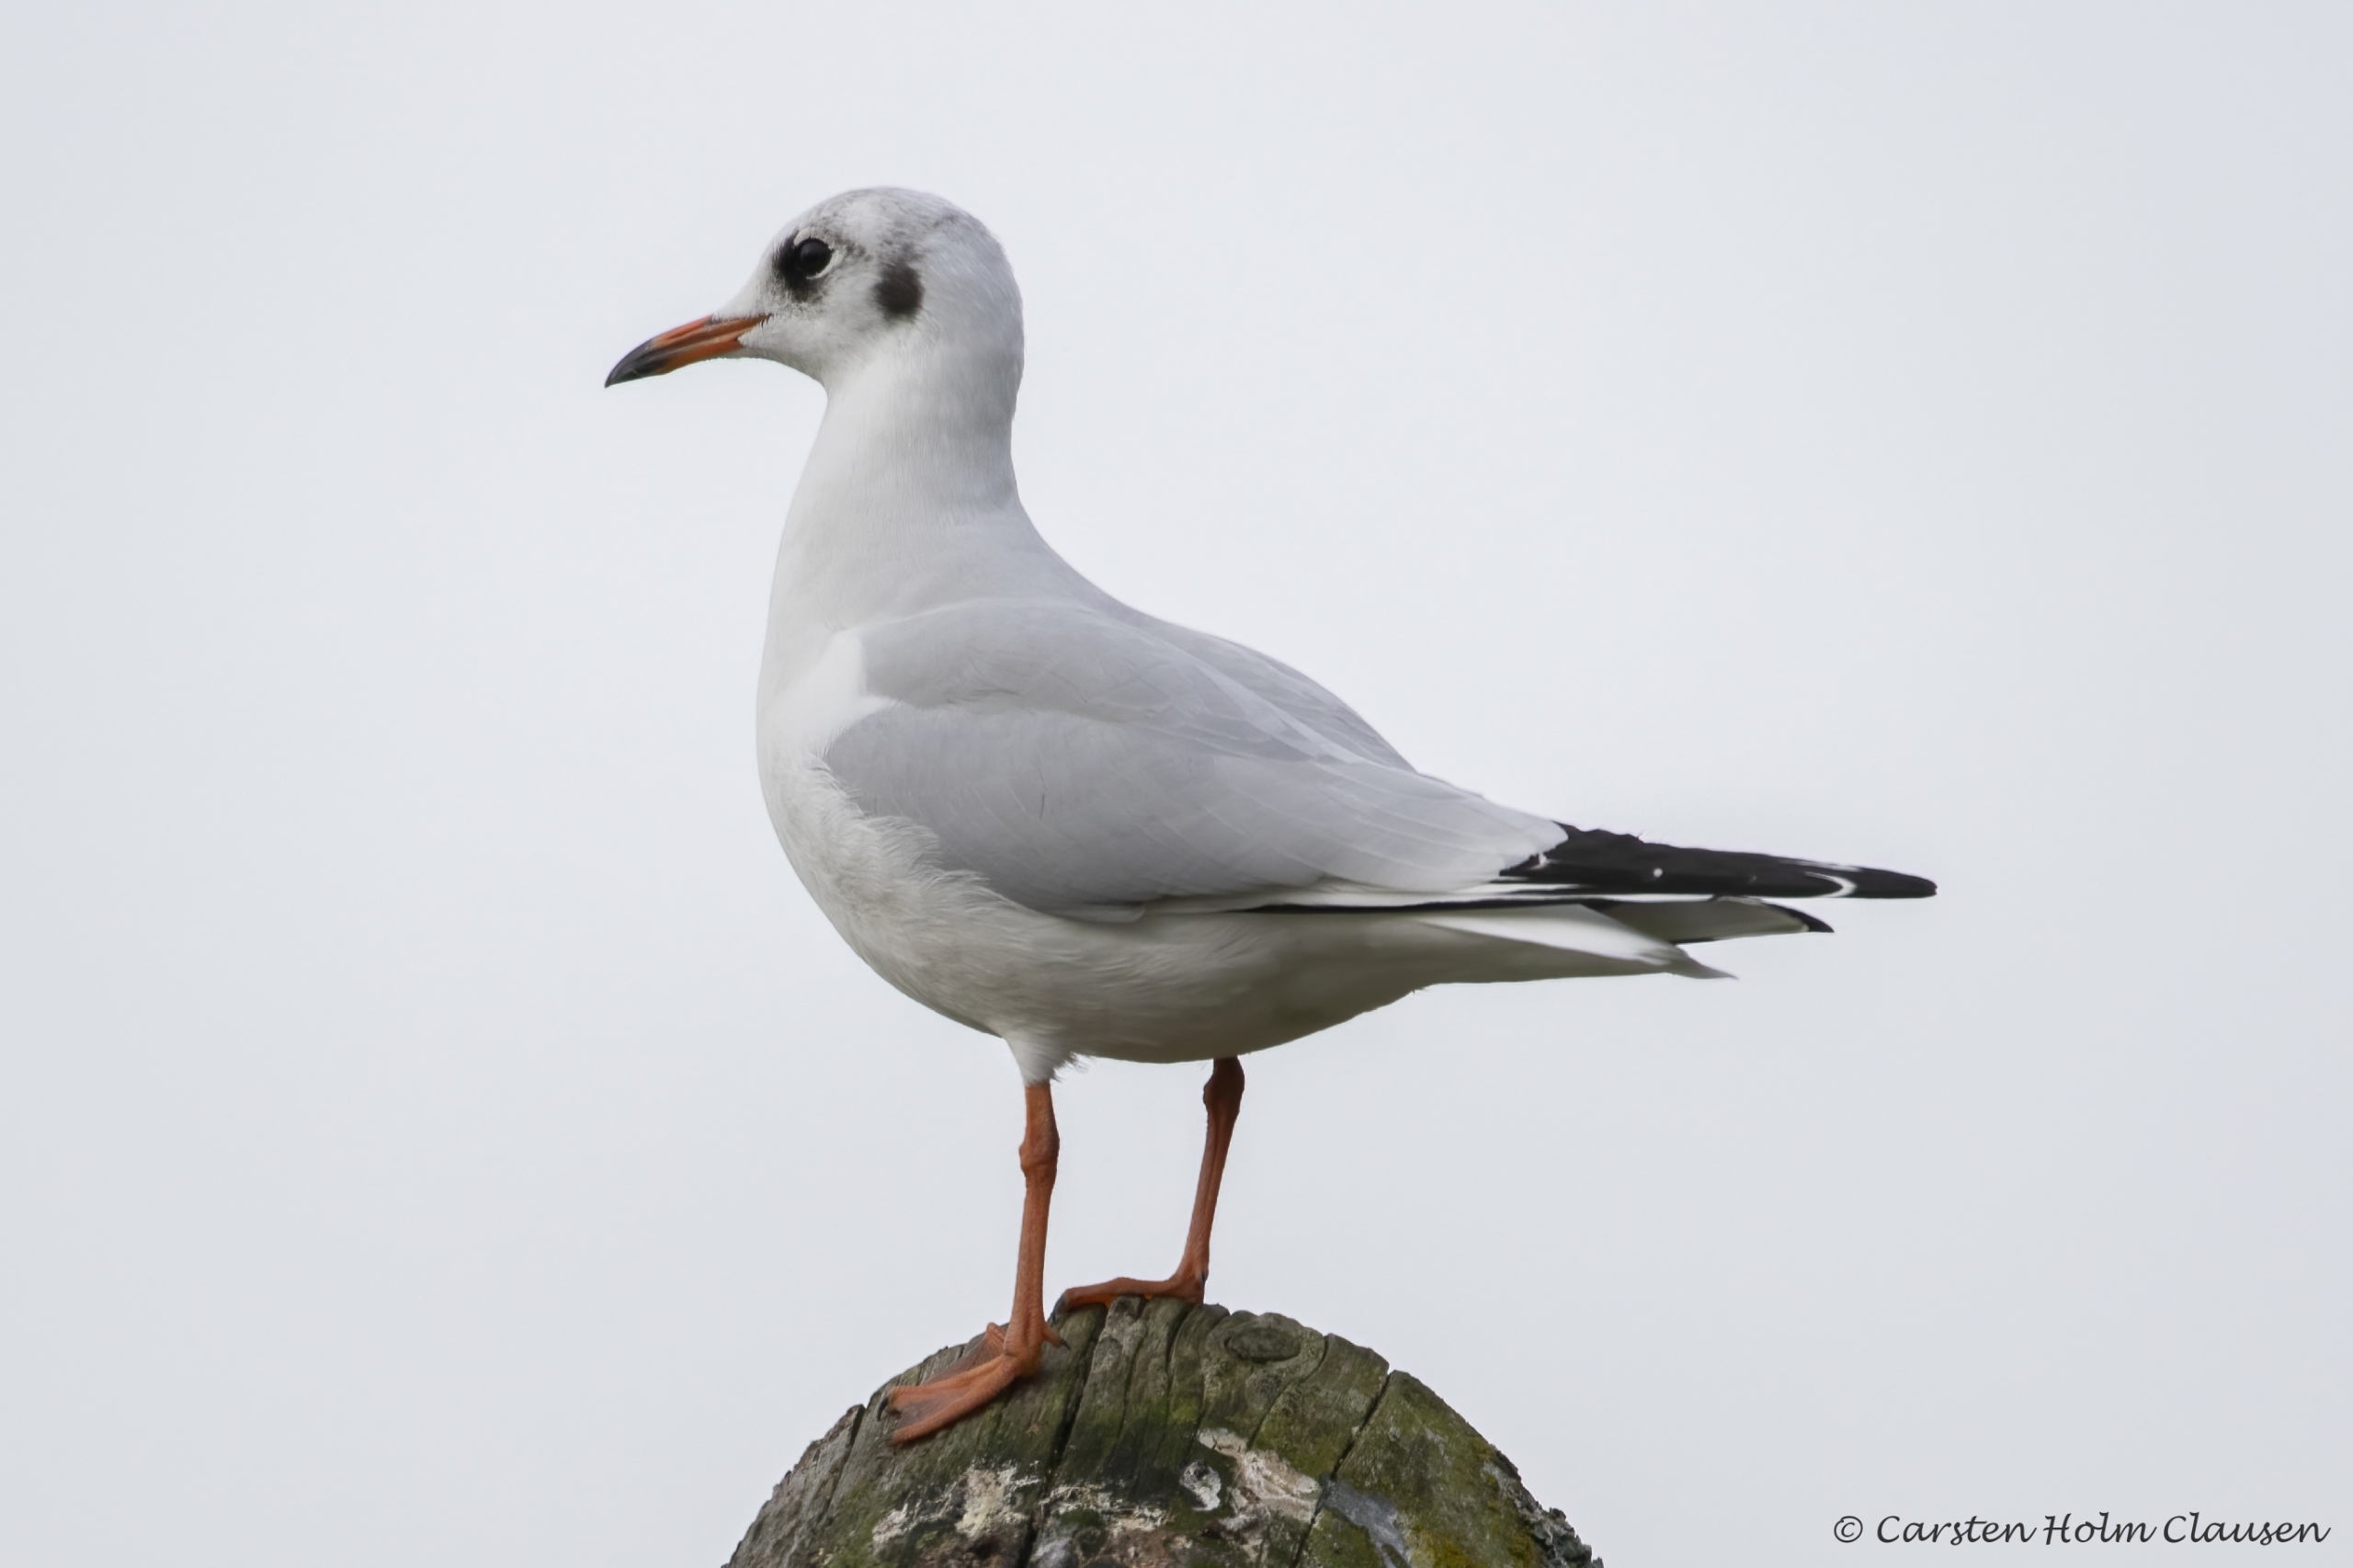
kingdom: Animalia
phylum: Chordata
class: Aves
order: Charadriiformes
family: Laridae
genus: Chroicocephalus
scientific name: Chroicocephalus ridibundus
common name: Hættemåge
